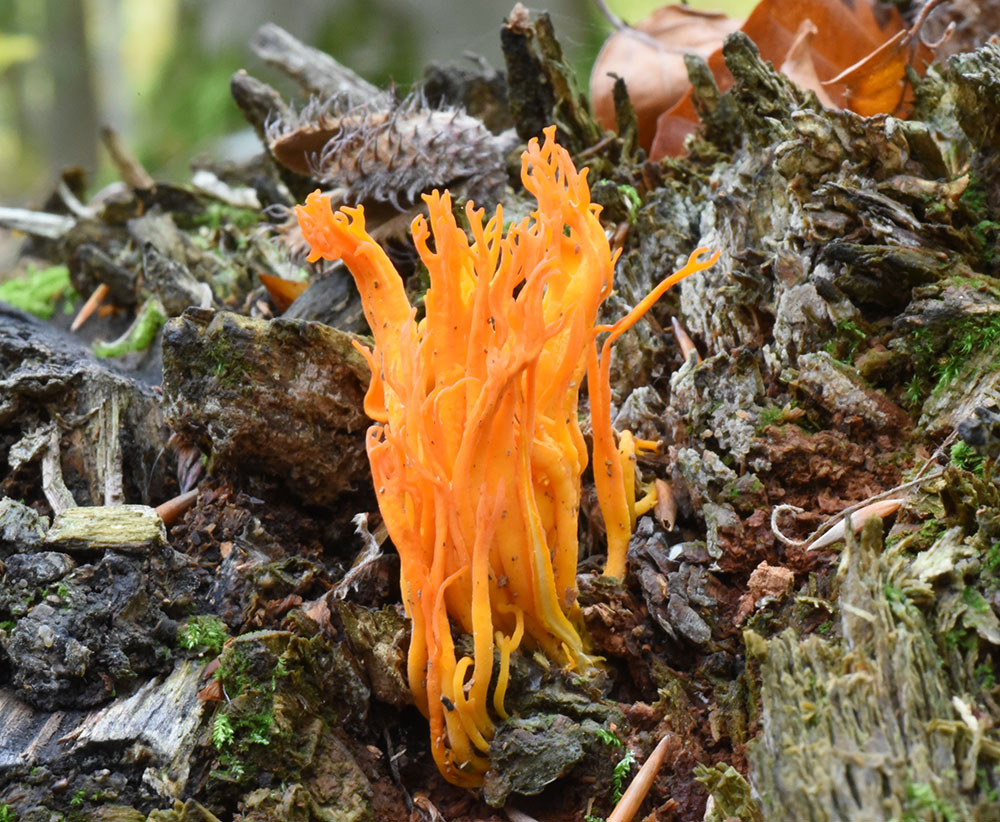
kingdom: Fungi
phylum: Basidiomycota
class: Dacrymycetes
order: Dacrymycetales
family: Dacrymycetaceae
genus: Calocera
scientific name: Calocera viscosa
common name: Yellow stagshorn
